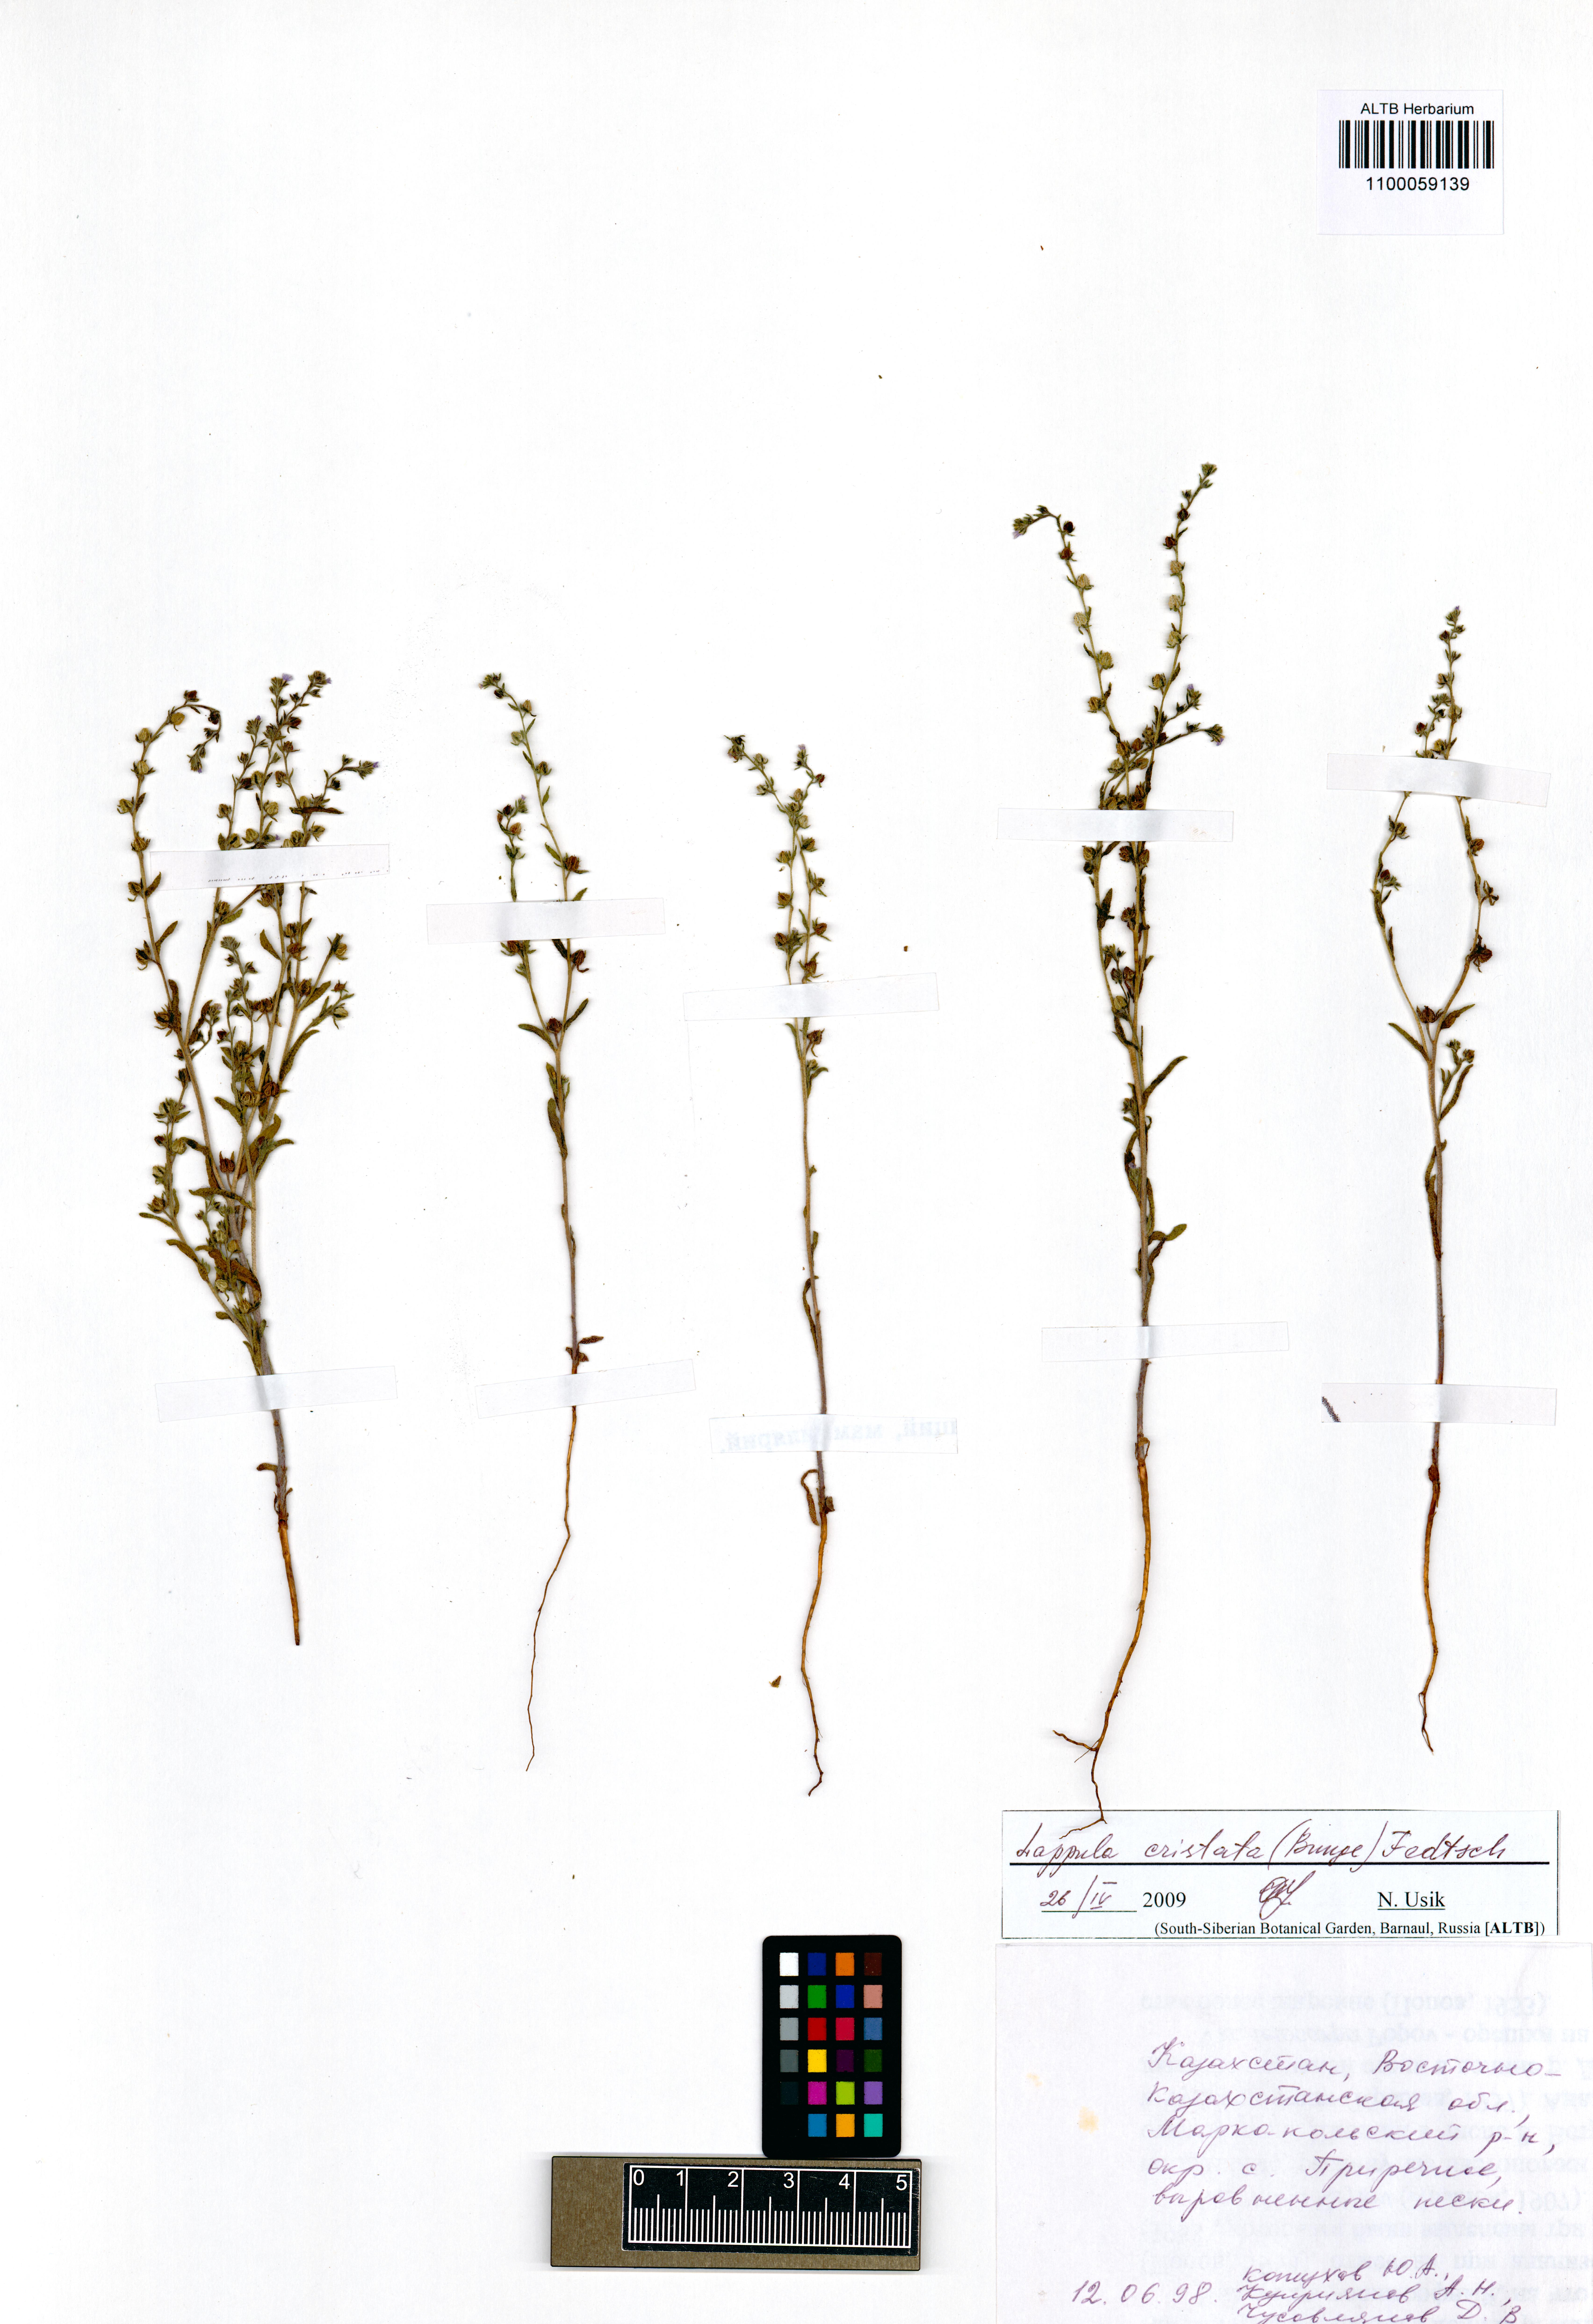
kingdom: Plantae
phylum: Tracheophyta
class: Magnoliopsida
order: Boraginales
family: Boraginaceae
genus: Paracaryum
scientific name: Paracaryum cristatum
